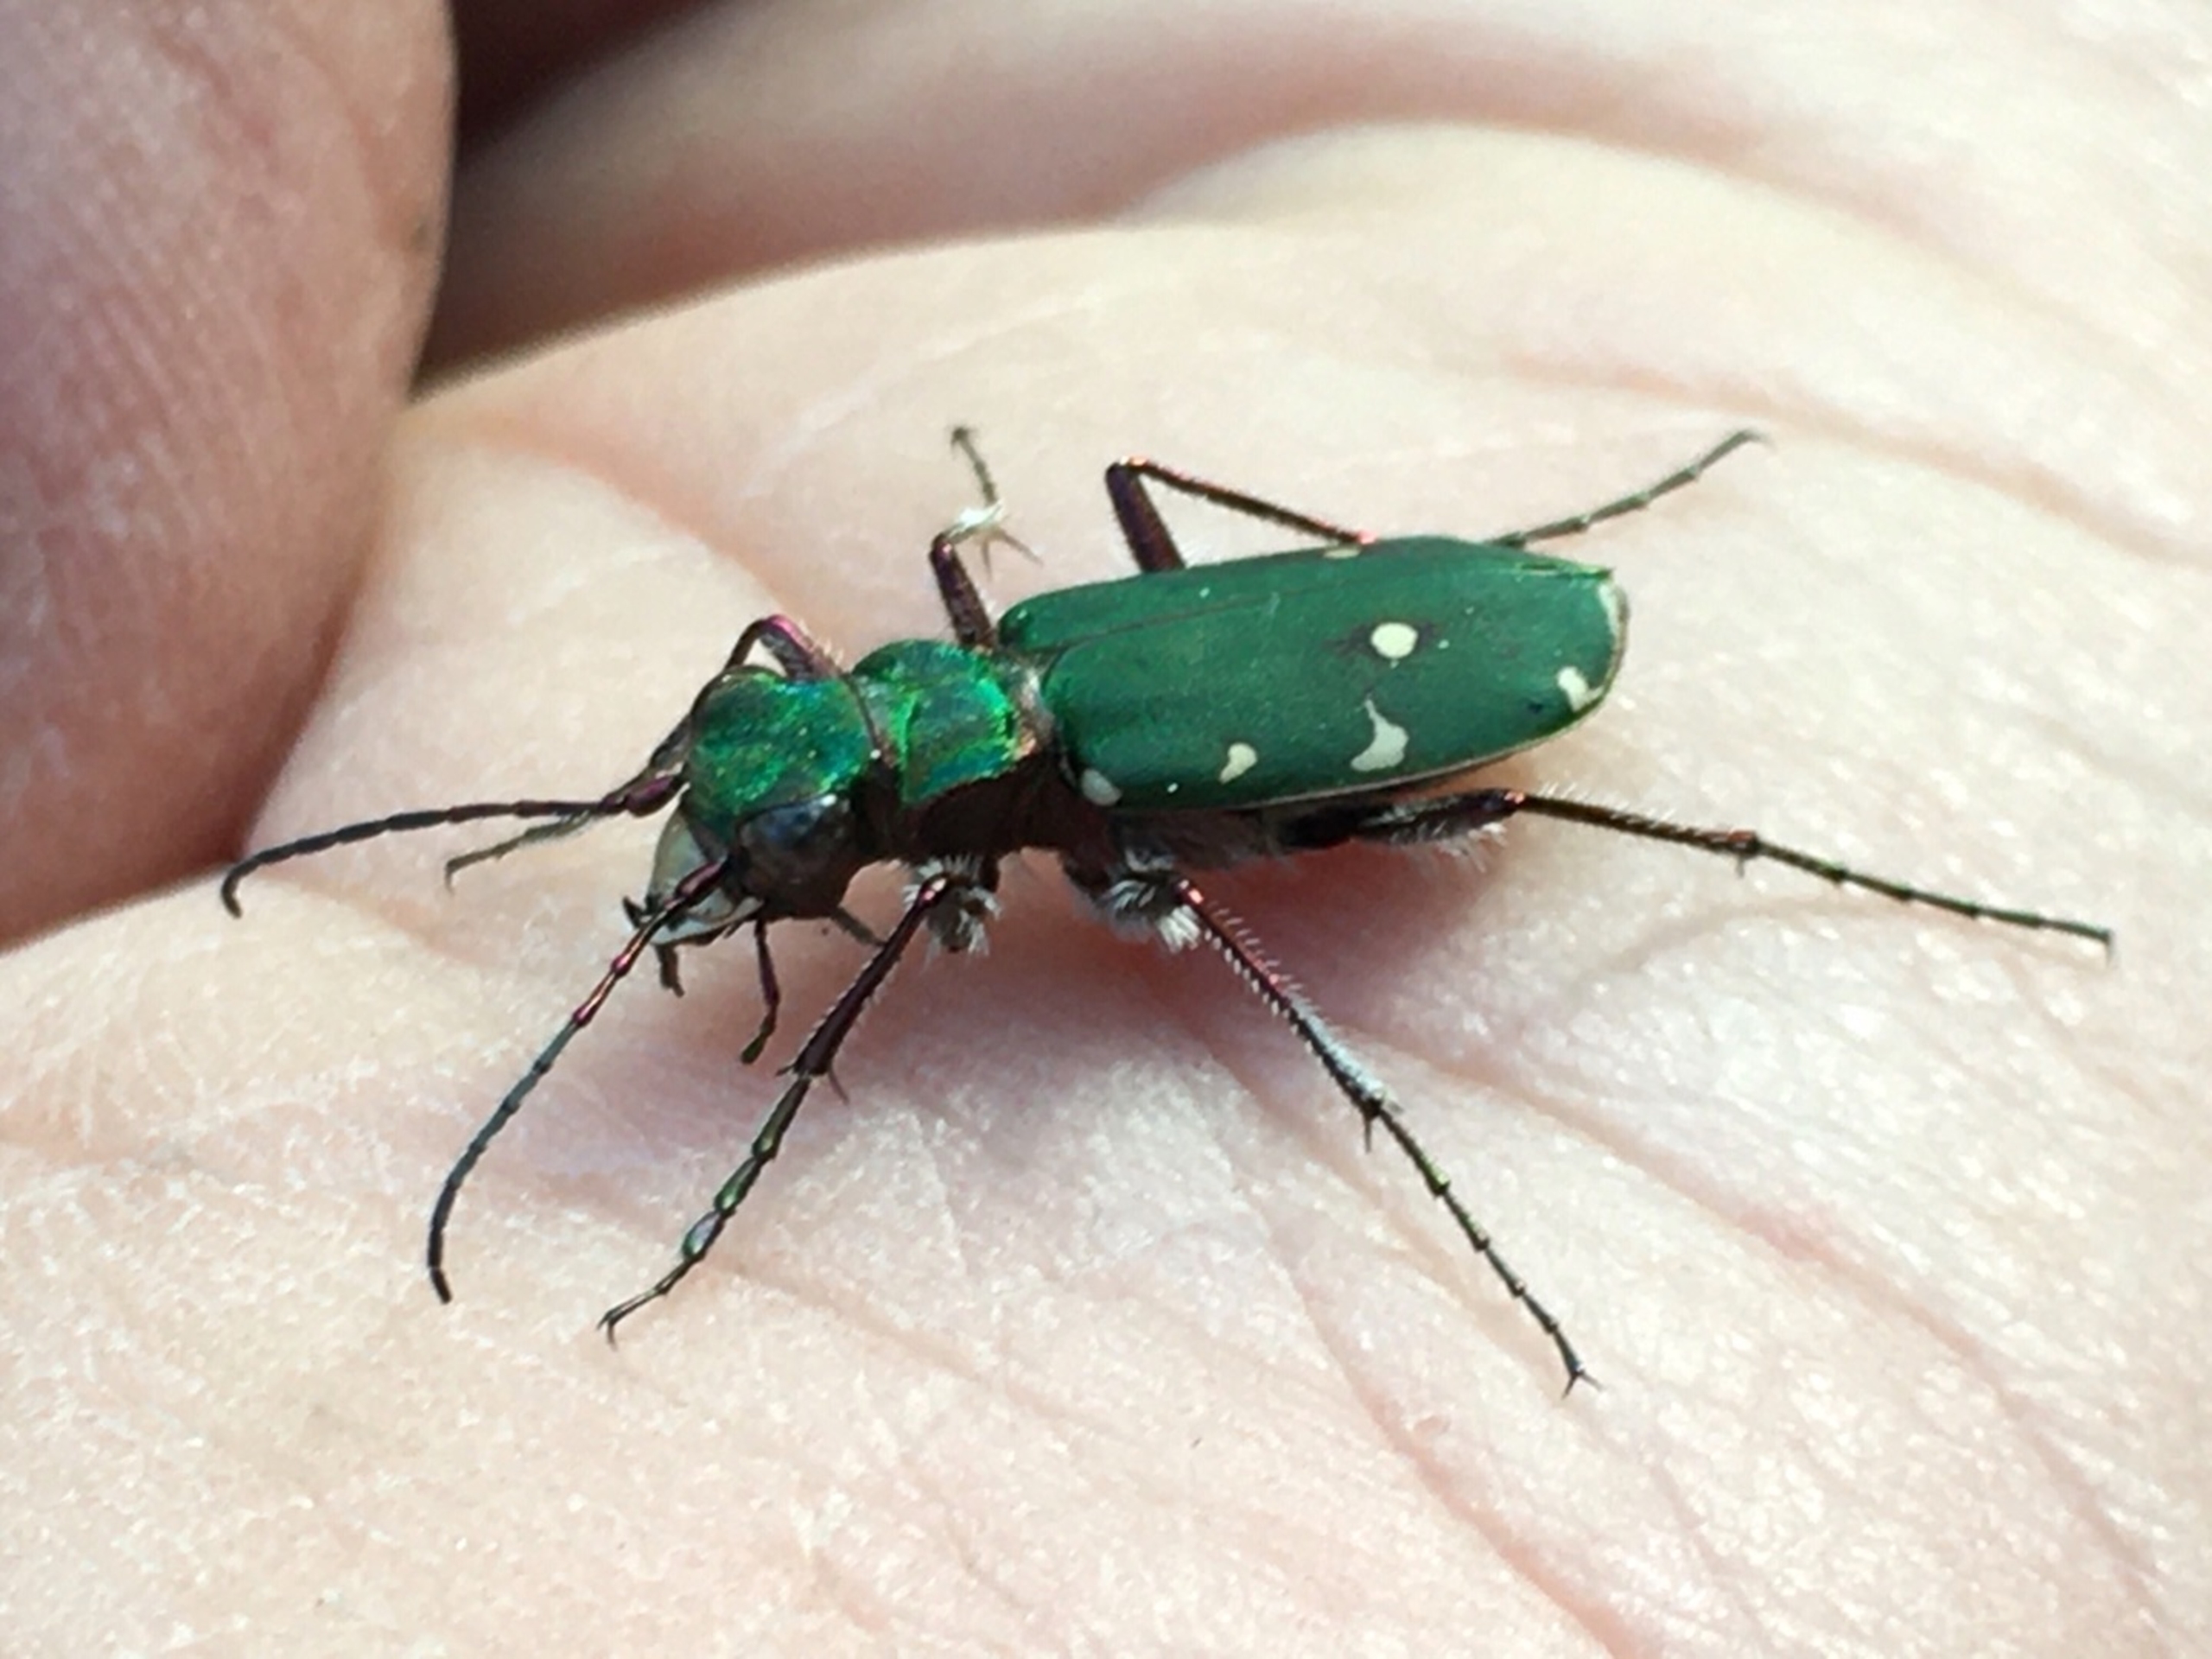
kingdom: Animalia
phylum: Arthropoda
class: Insecta
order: Coleoptera
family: Carabidae
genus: Cicindela
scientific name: Cicindela campestris
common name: Grøn sandspringer
